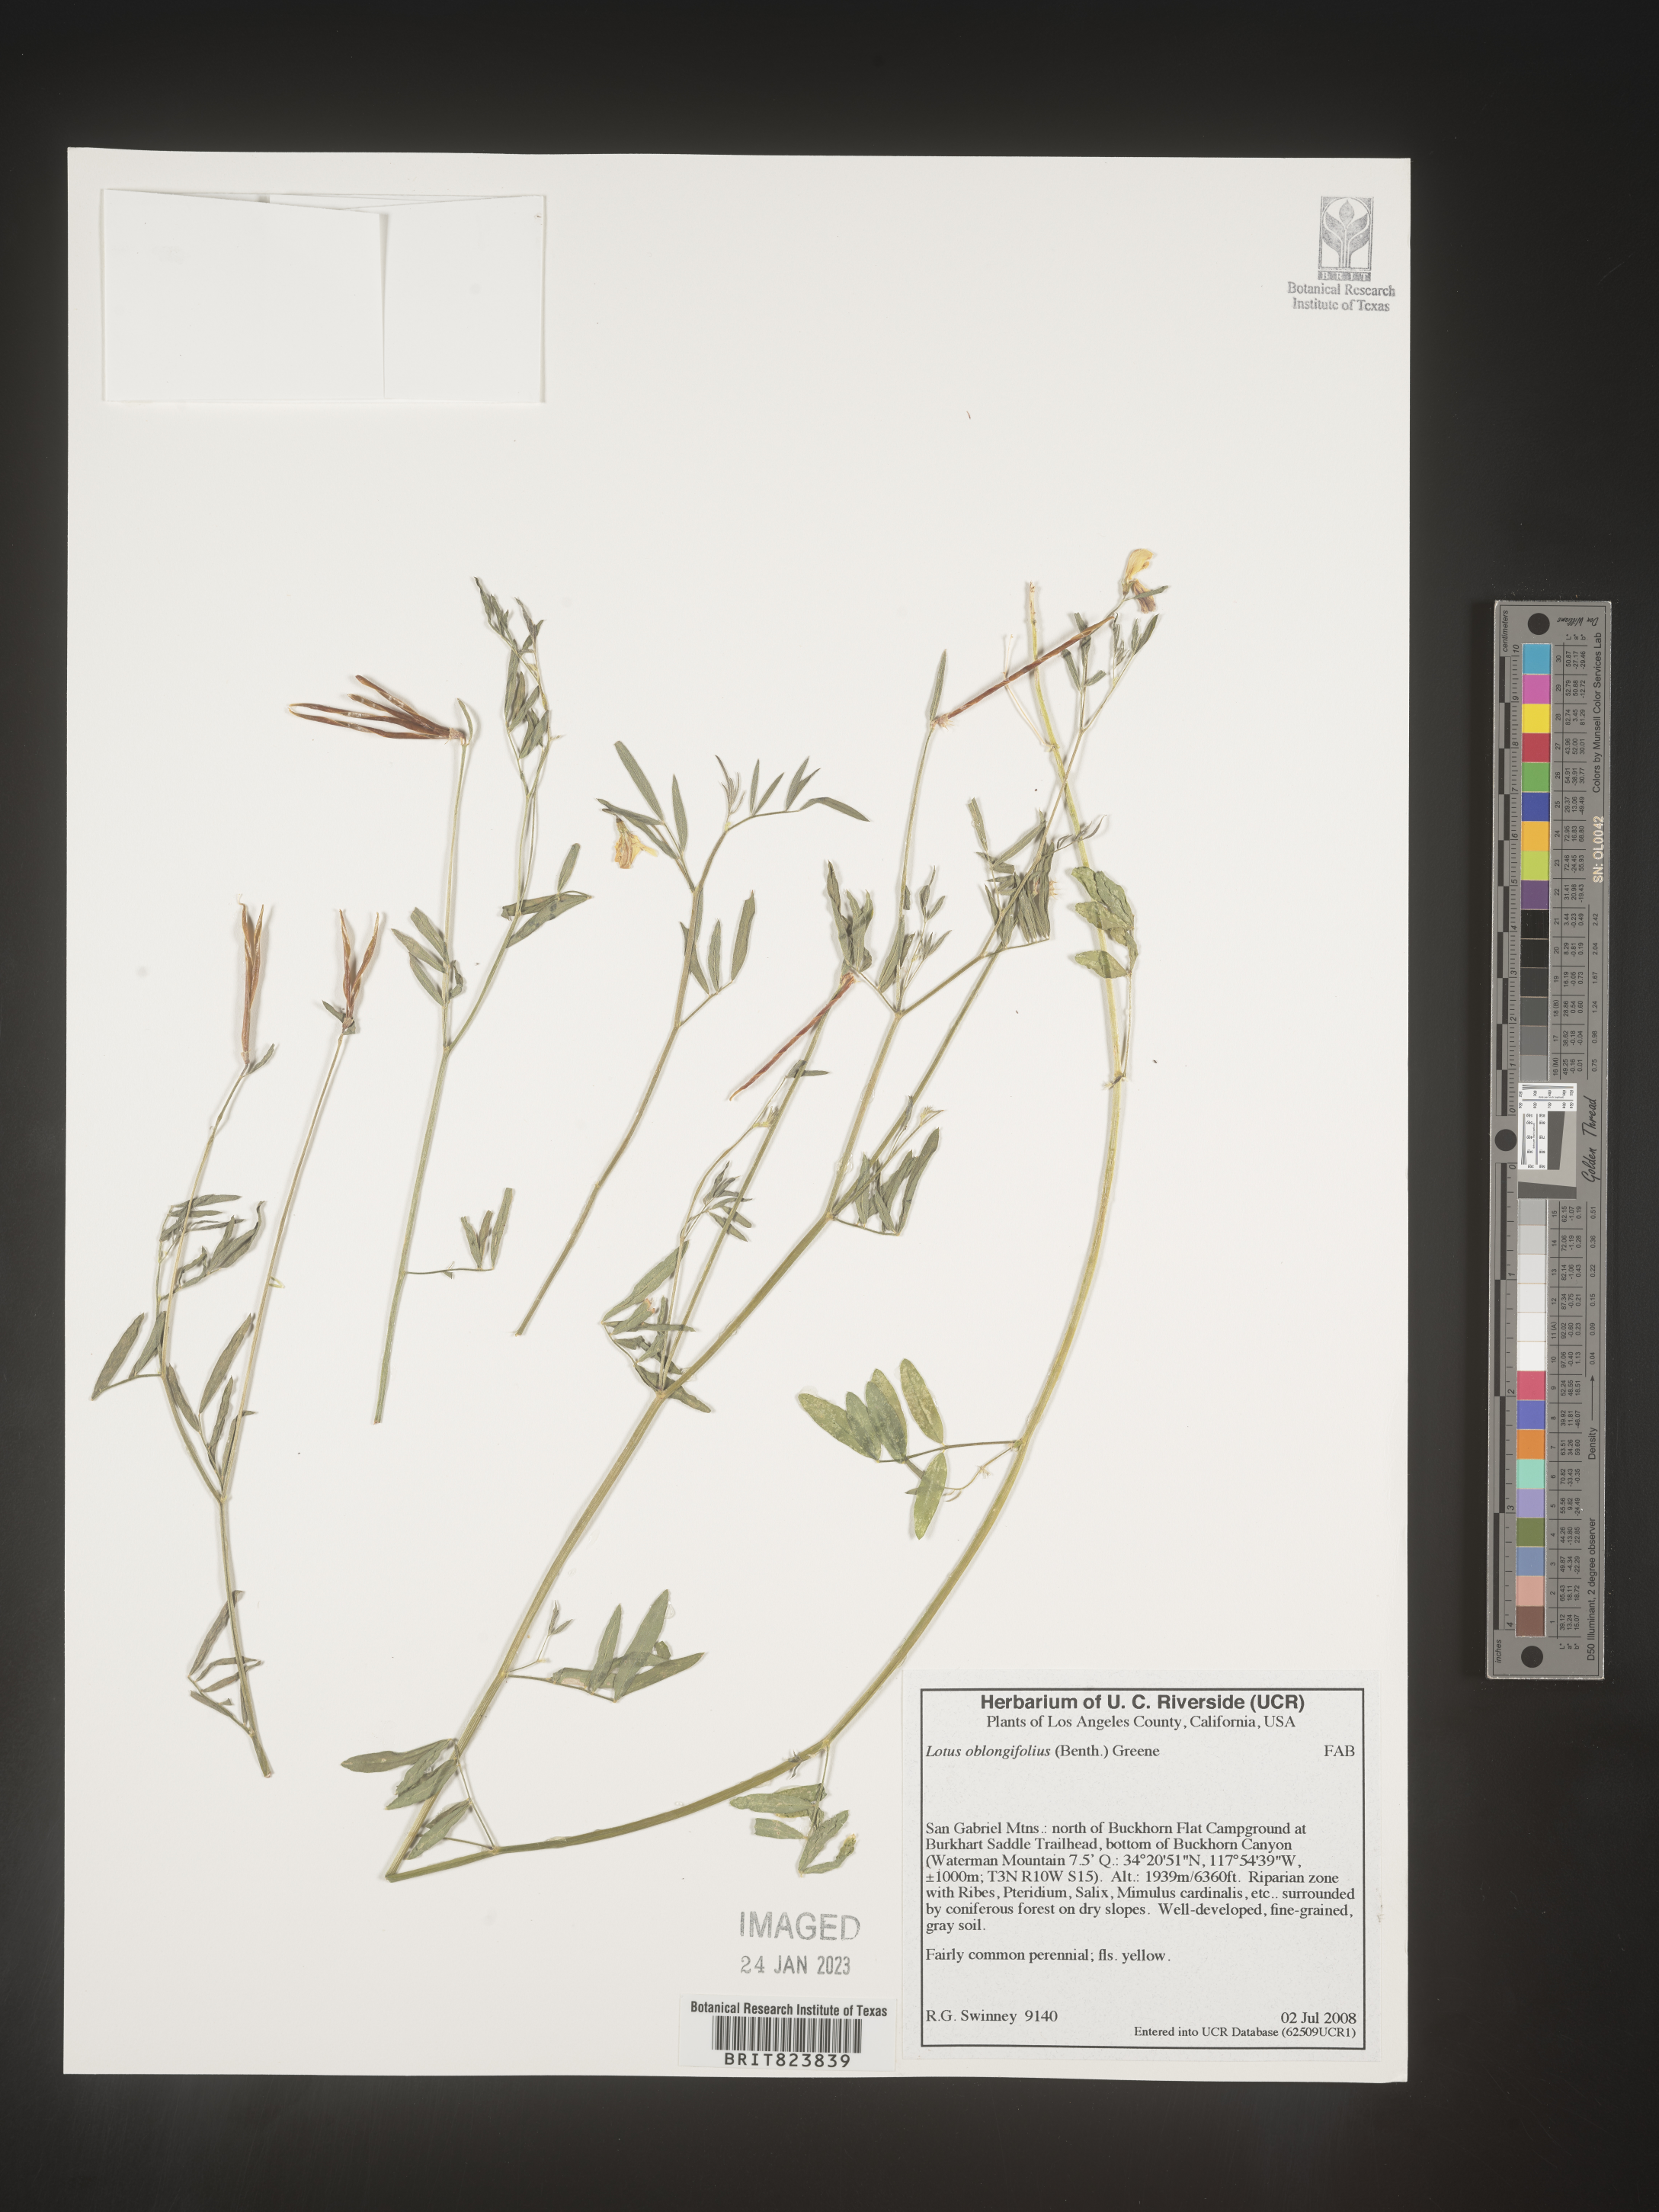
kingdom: Plantae
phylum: Tracheophyta
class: Magnoliopsida
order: Fabales
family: Fabaceae
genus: Hosackia
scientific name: Hosackia oblongifolia
